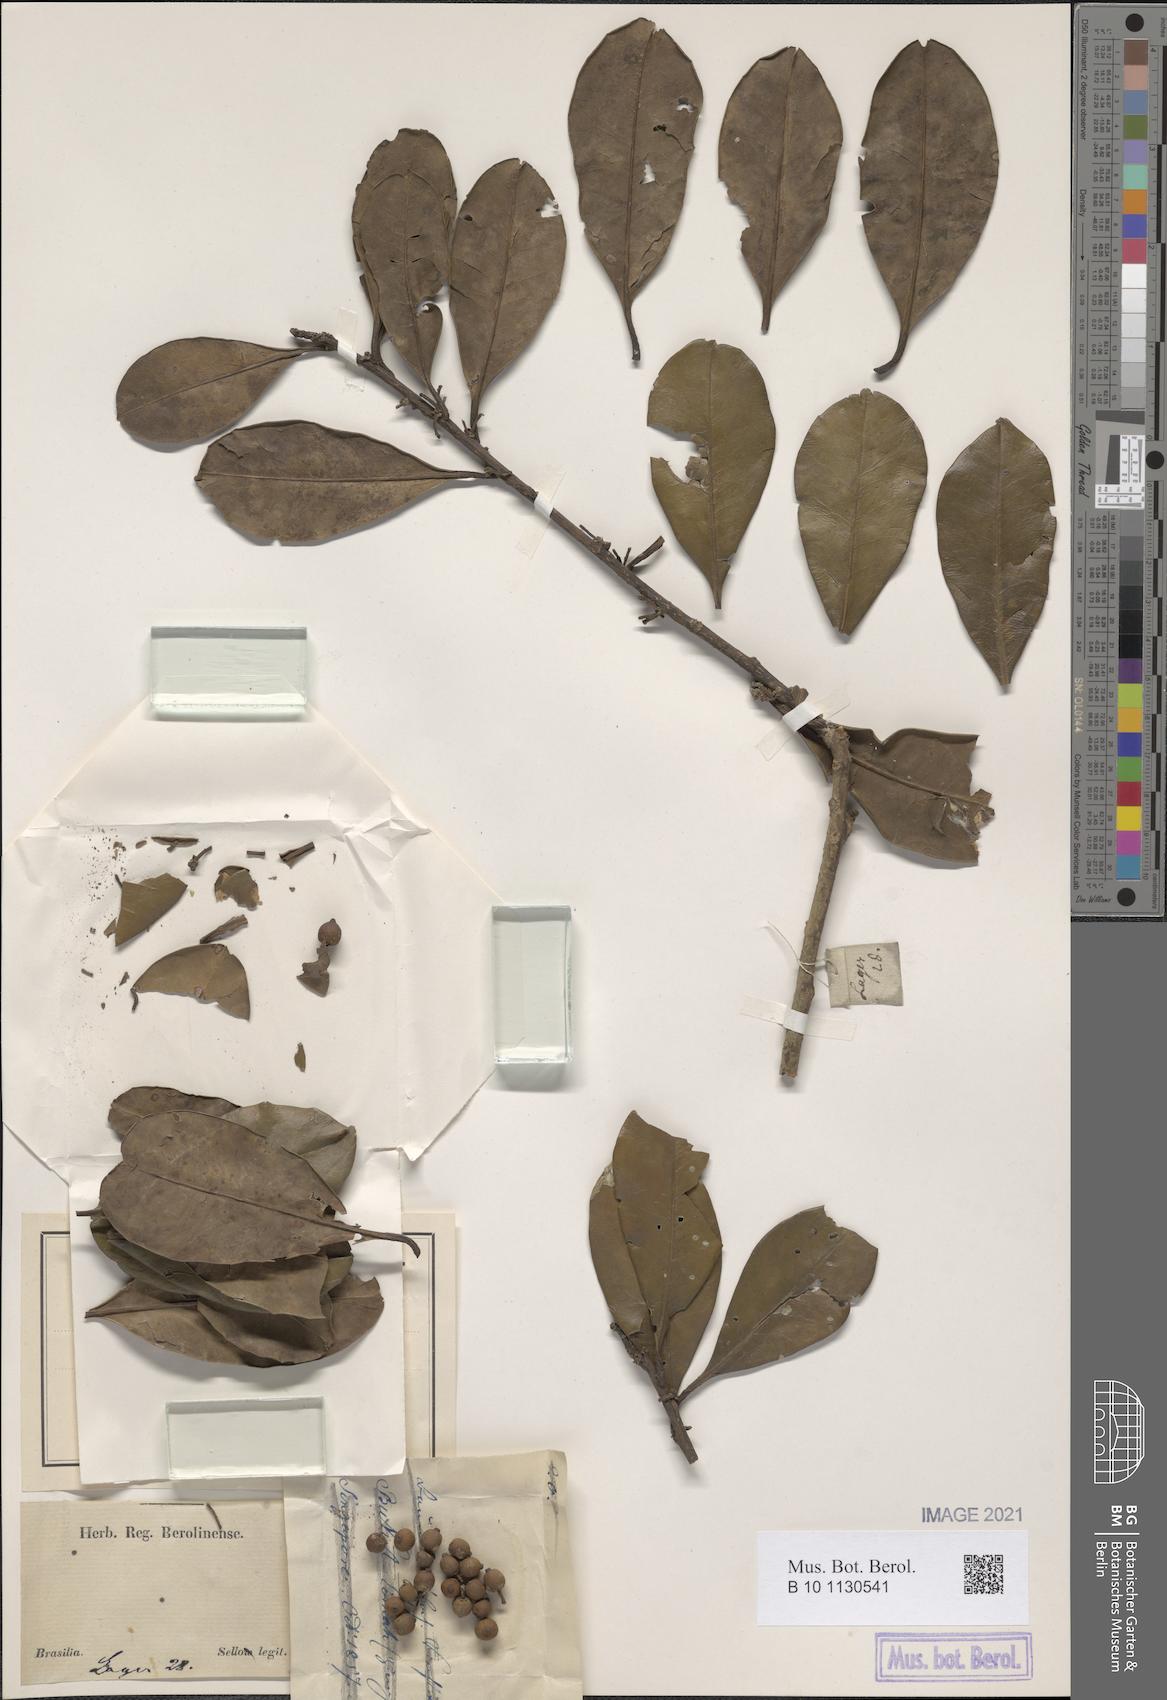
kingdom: Plantae
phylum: Tracheophyta
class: Magnoliopsida
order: Aquifoliales
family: Aquifoliaceae
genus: Ilex
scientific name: Ilex theezans
